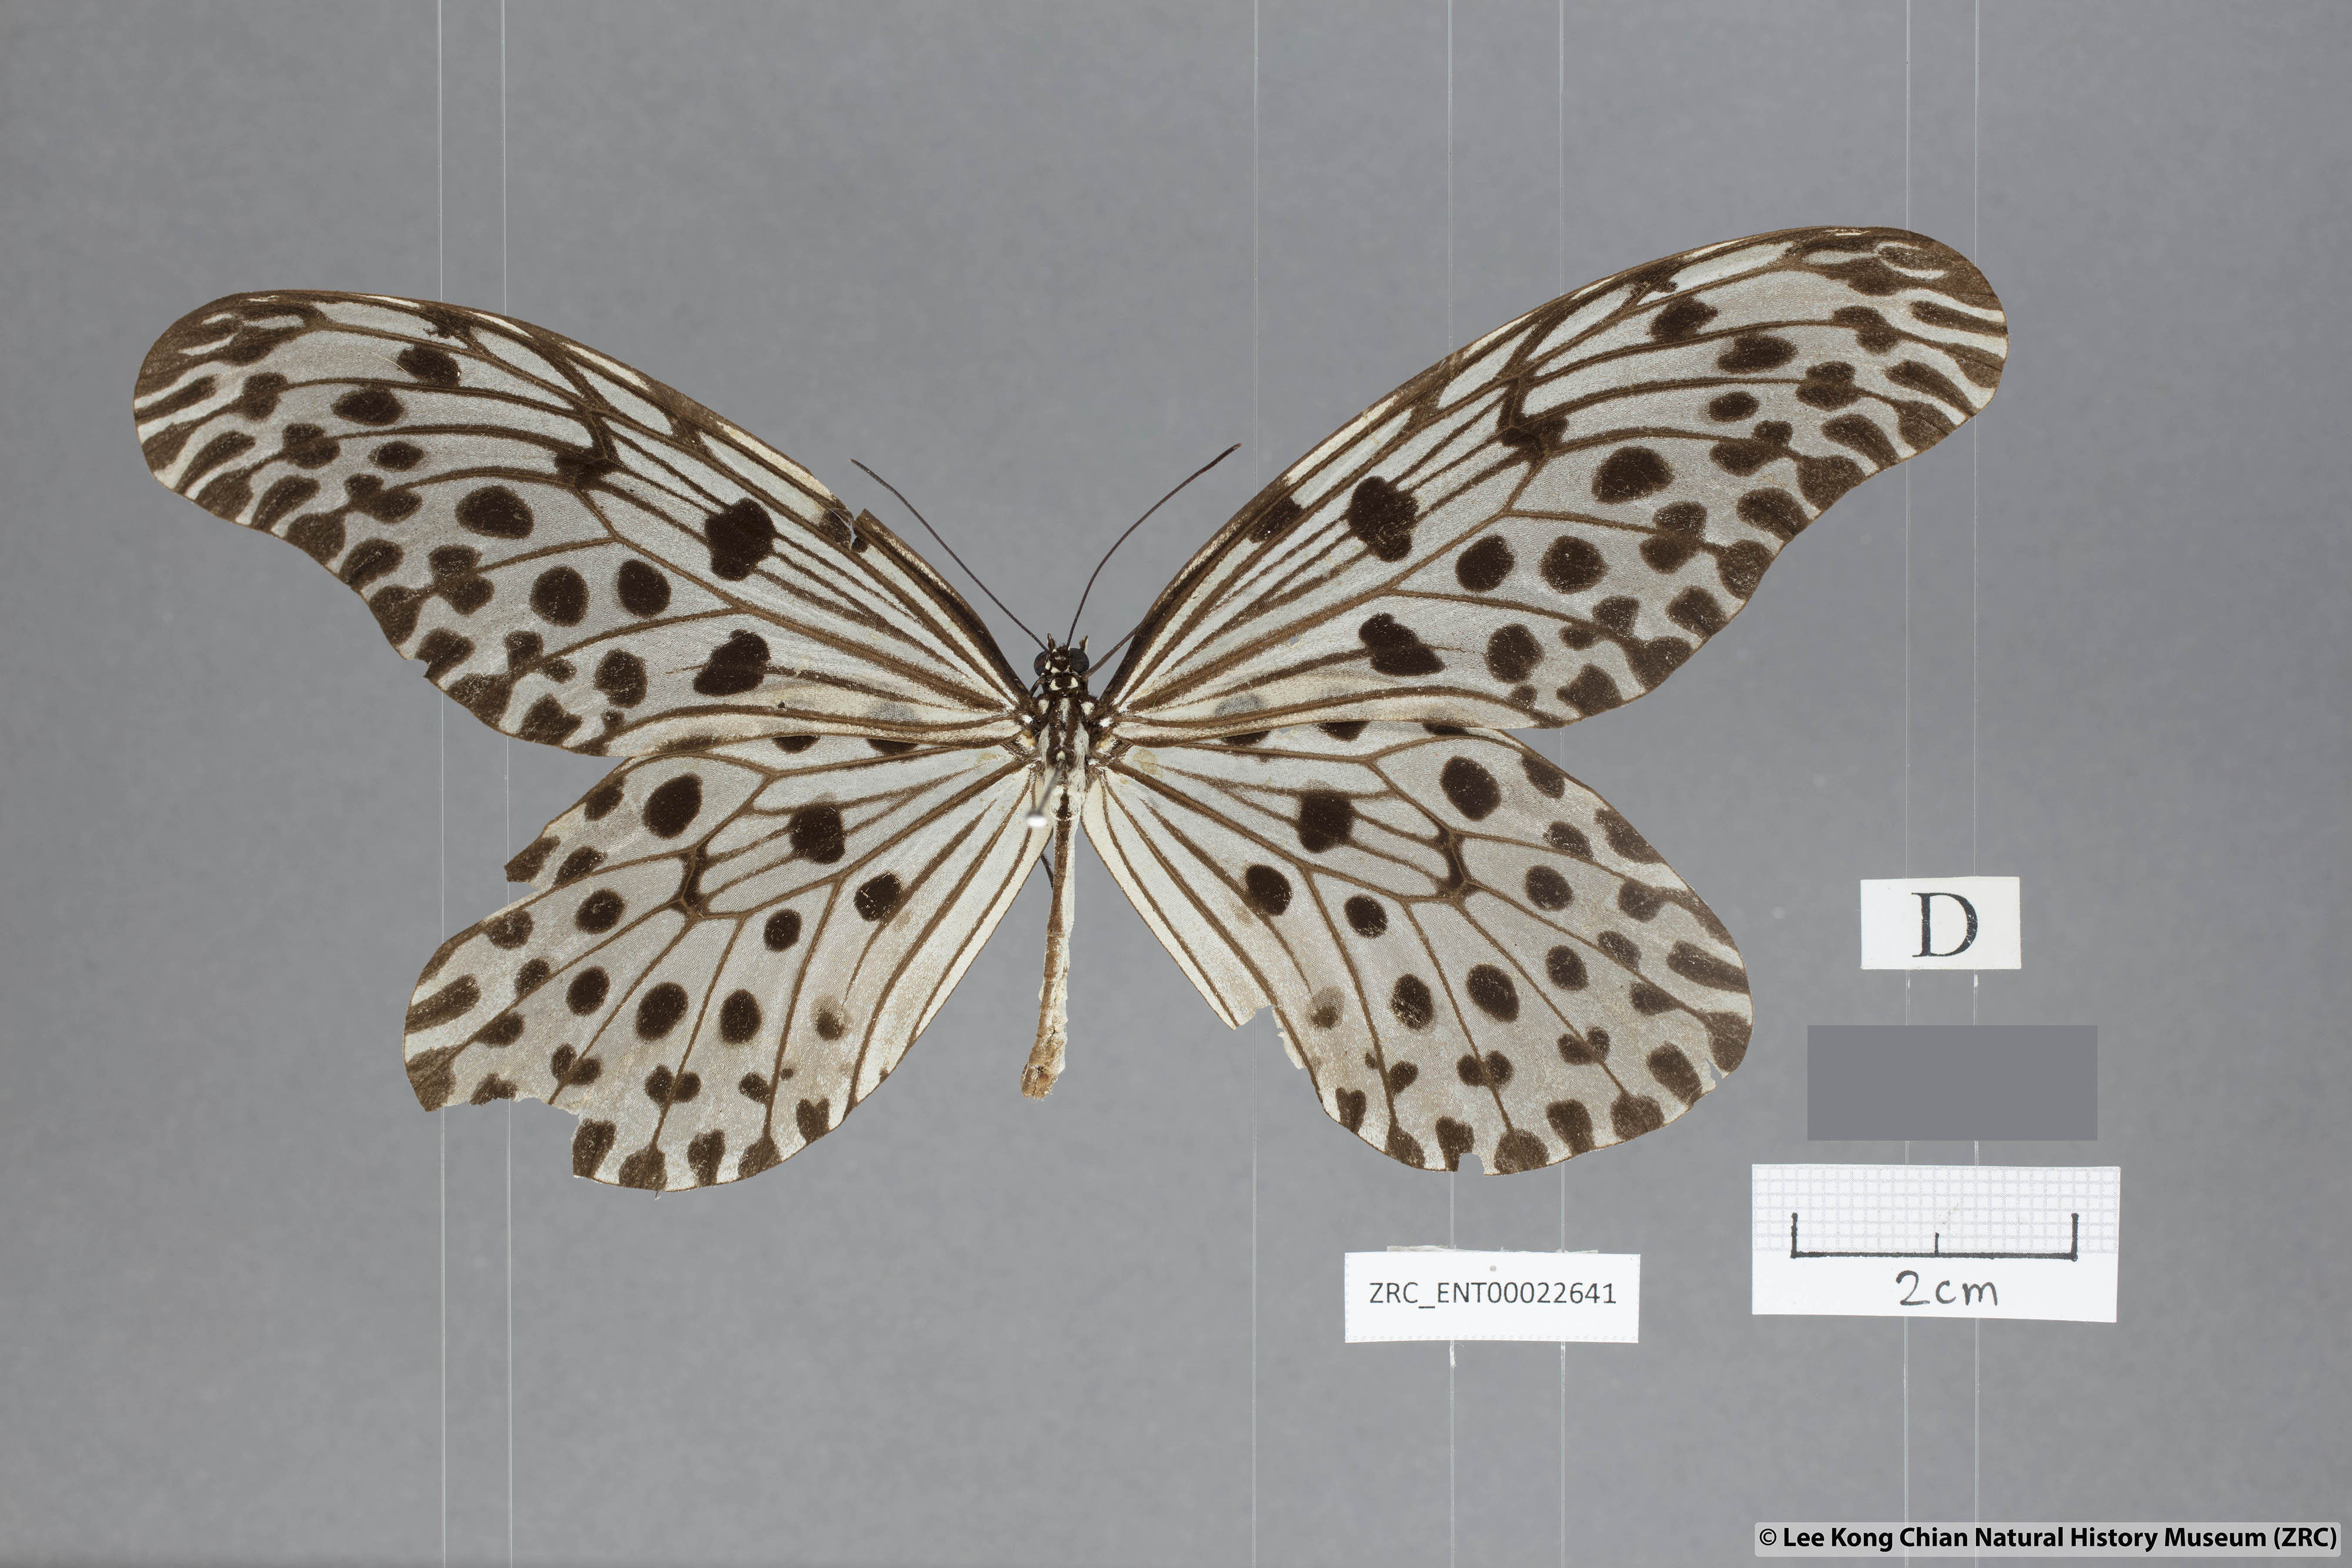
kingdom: Animalia
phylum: Arthropoda
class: Insecta
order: Lepidoptera
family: Nymphalidae
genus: Idea
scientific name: Idea stolli
